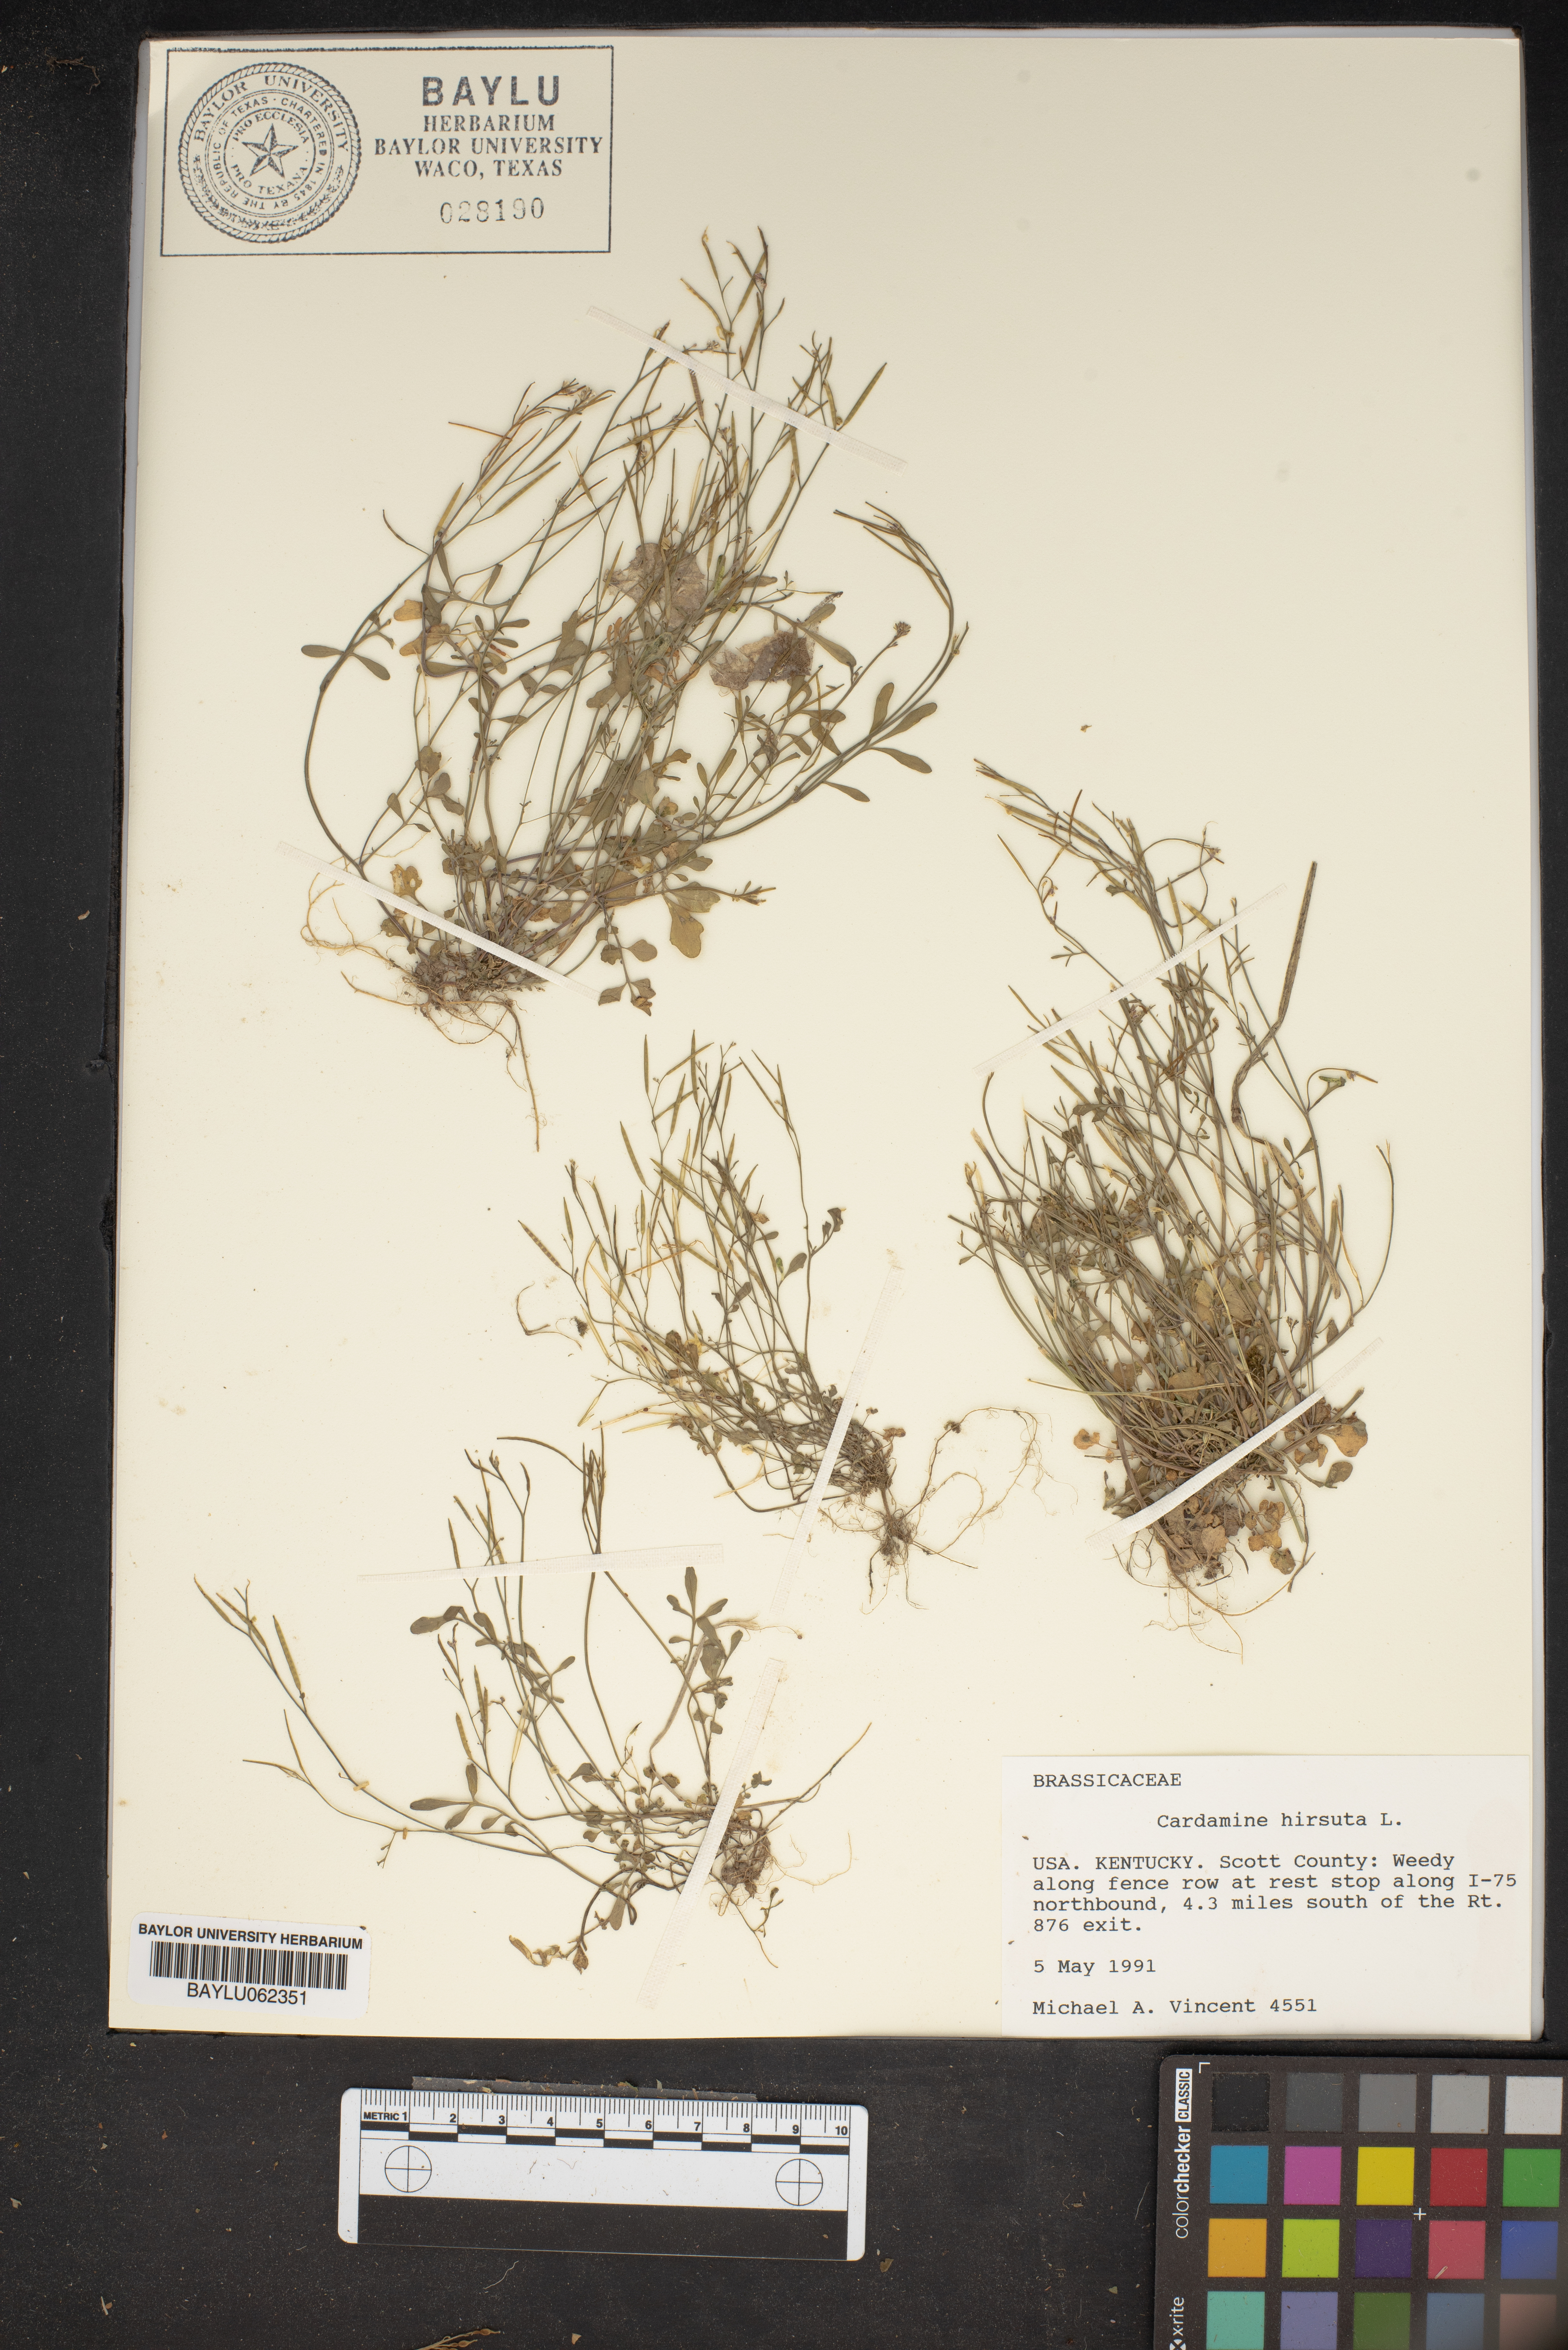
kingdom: Plantae
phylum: Tracheophyta
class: Magnoliopsida
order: Brassicales
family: Brassicaceae
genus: Cardamine
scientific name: Cardamine hirsuta
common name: Hairy bittercress
